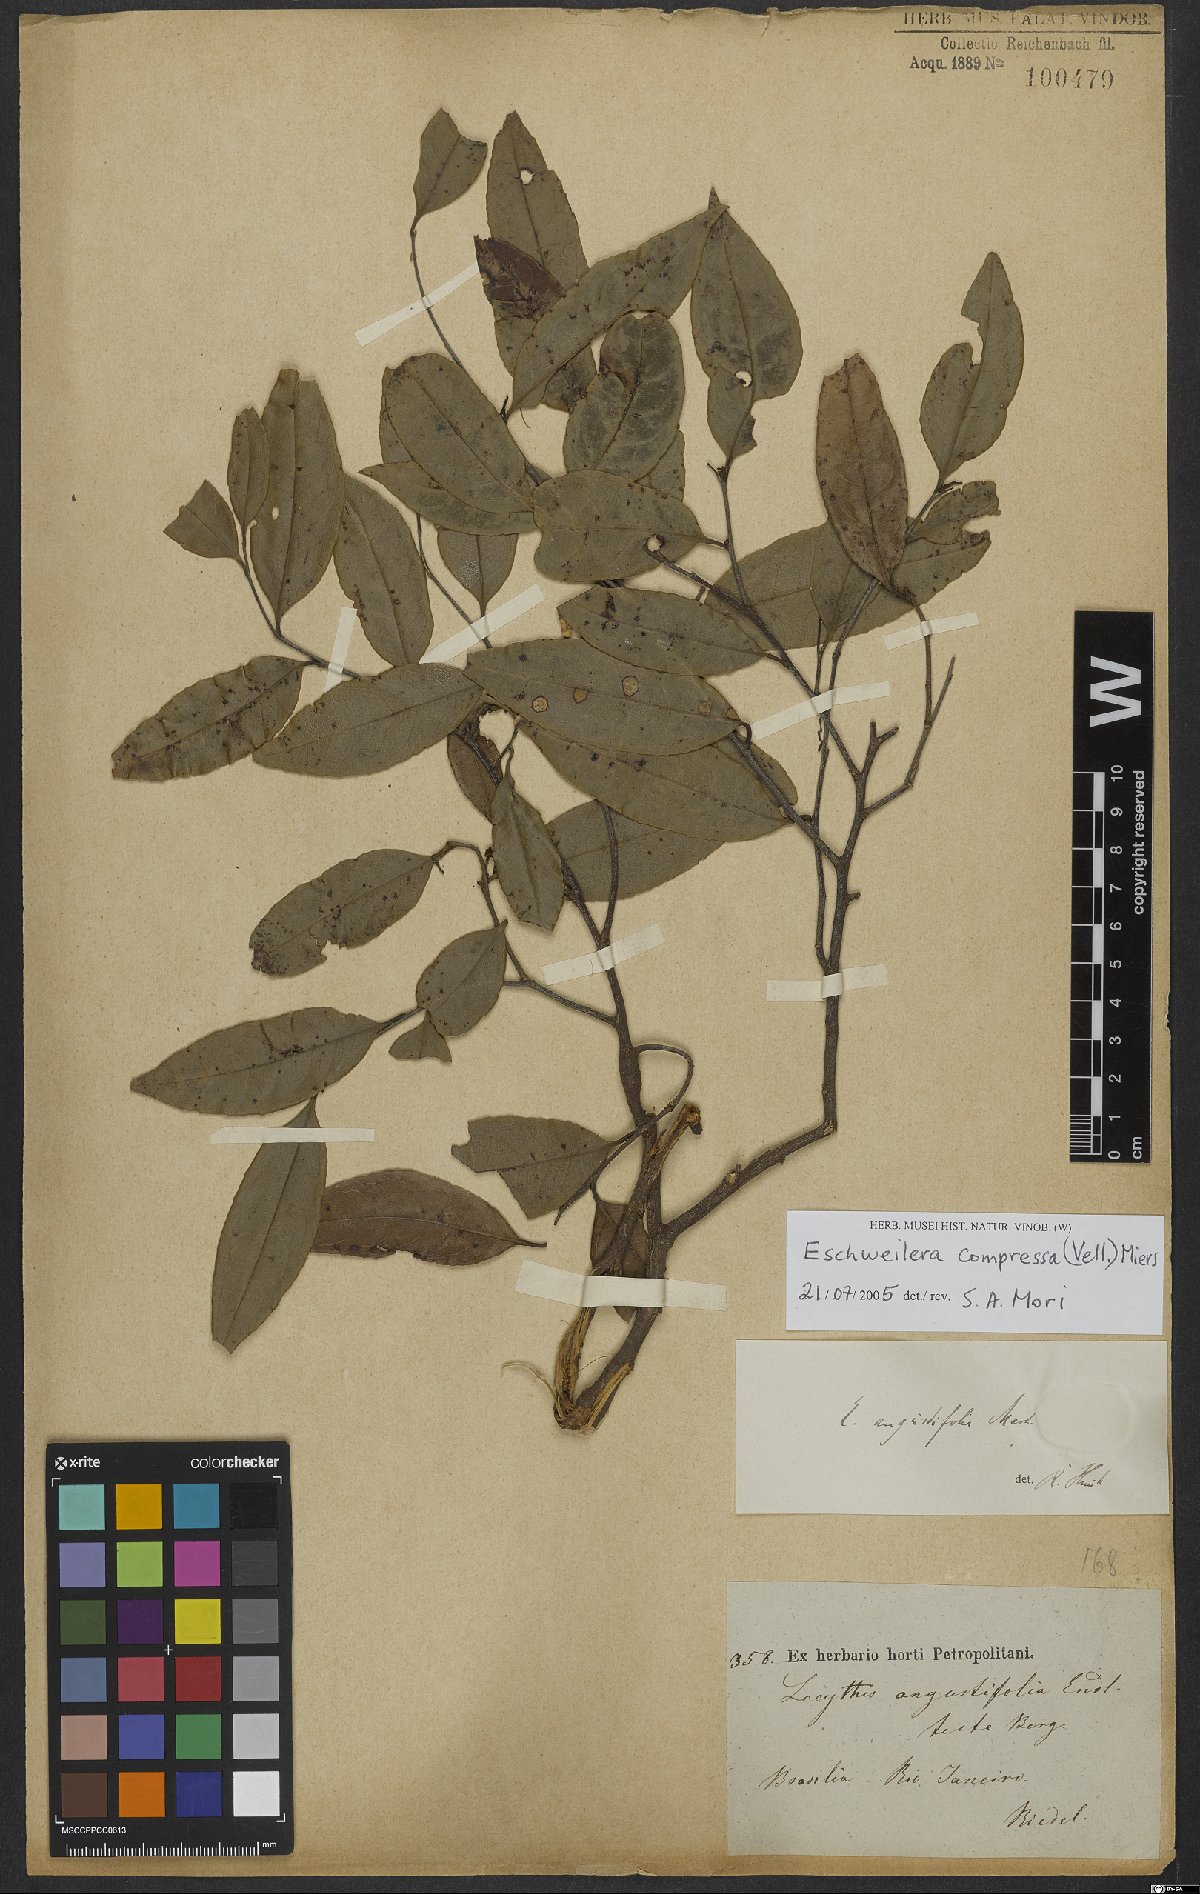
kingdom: Plantae
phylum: Tracheophyta
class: Magnoliopsida
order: Ericales
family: Lecythidaceae
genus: Eschweilera
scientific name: Eschweilera compressa
